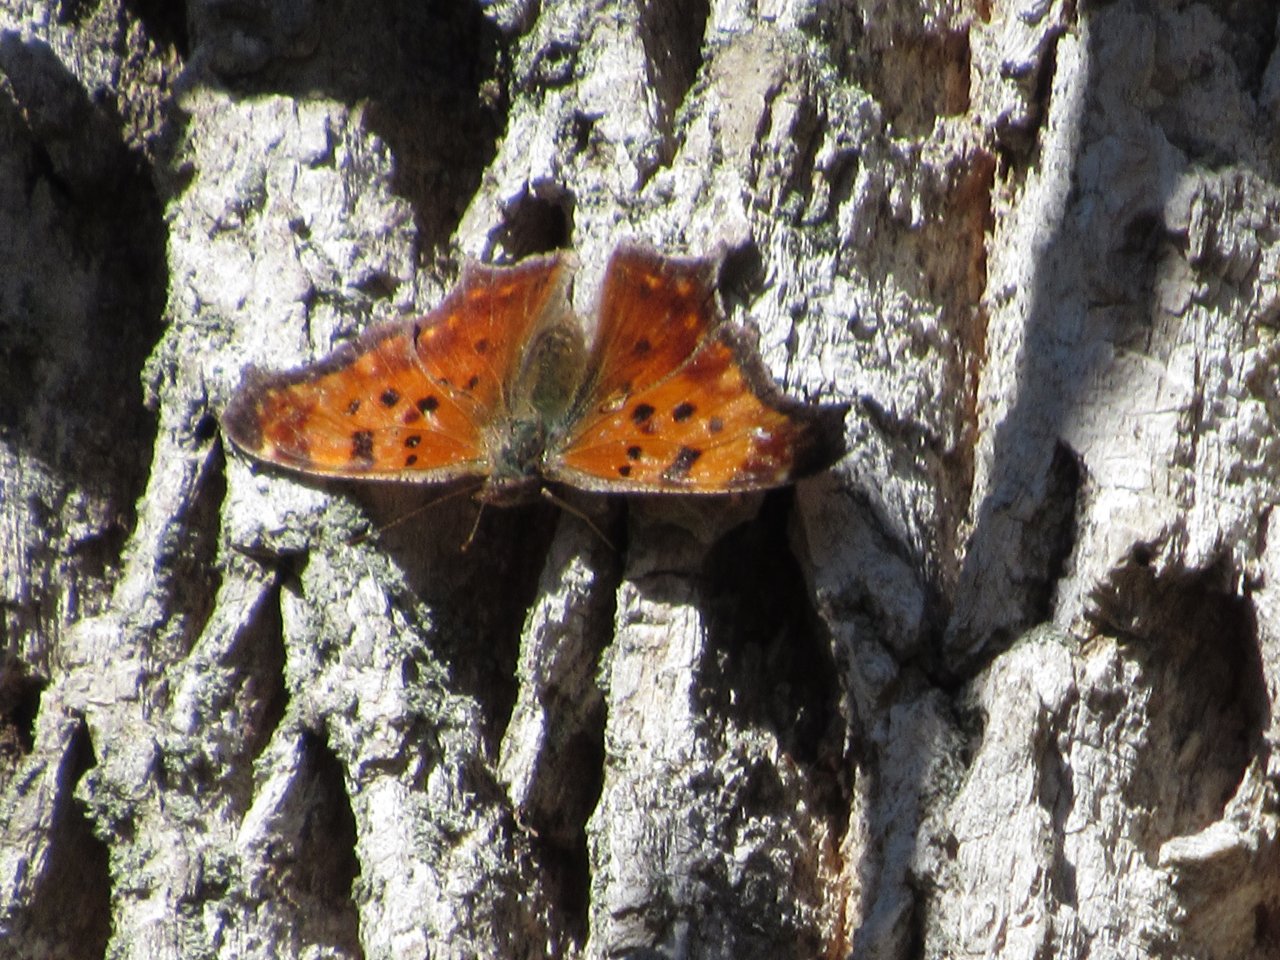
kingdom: Animalia
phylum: Arthropoda
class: Insecta
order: Lepidoptera
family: Nymphalidae
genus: Polygonia
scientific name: Polygonia comma
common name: Eastern Comma
